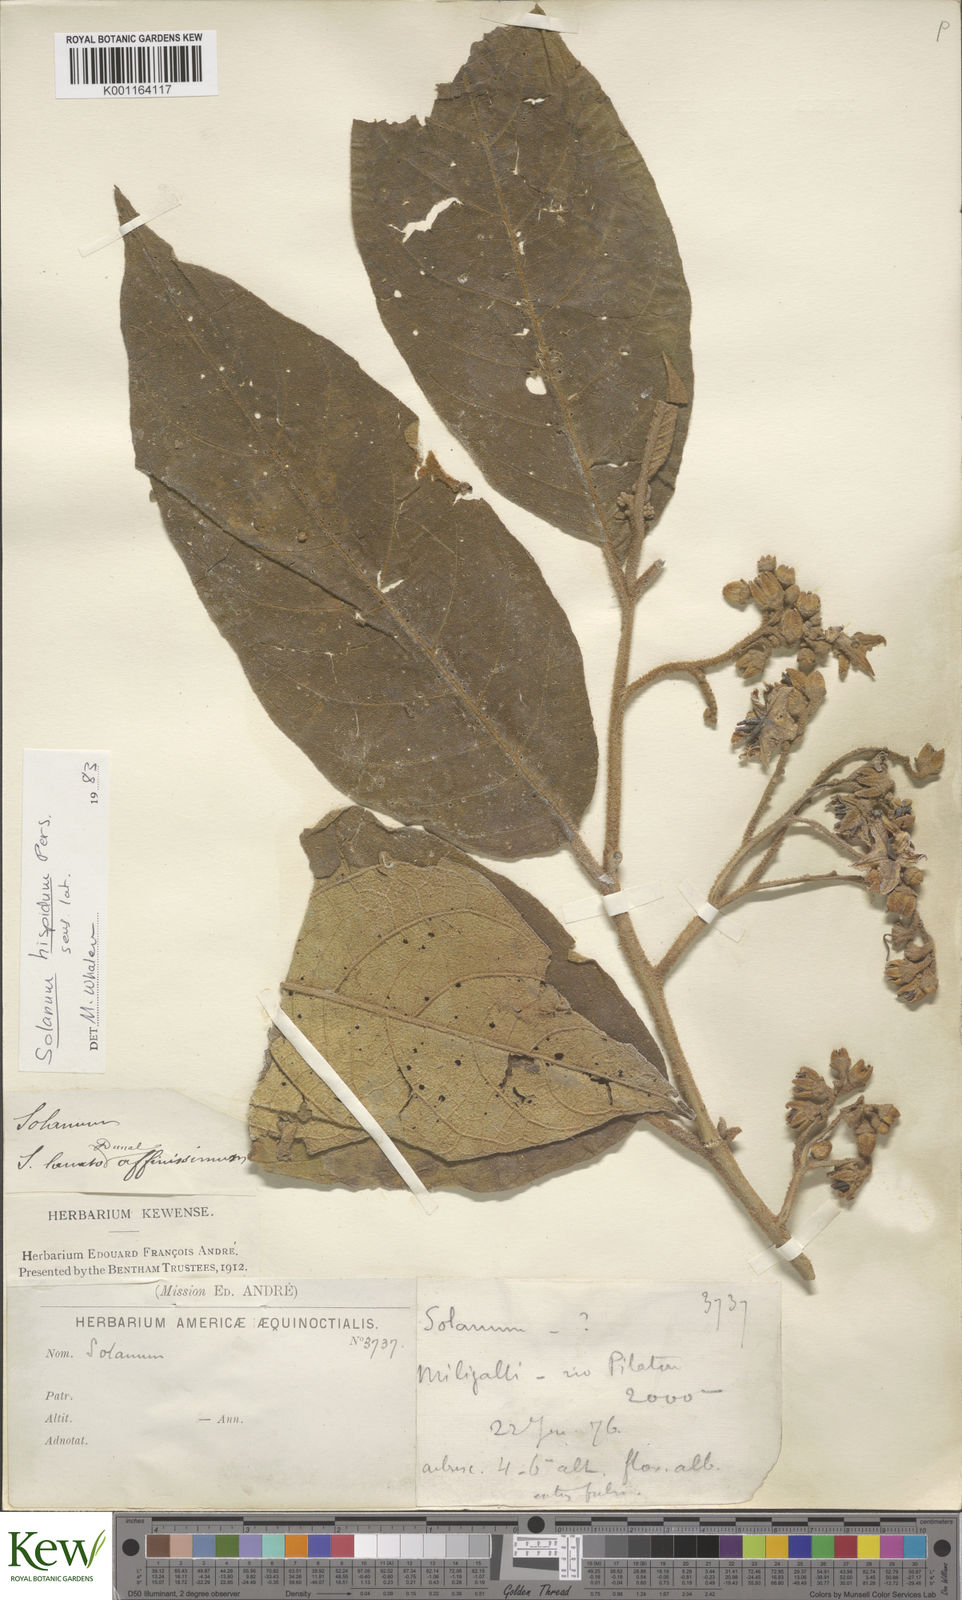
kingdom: Plantae
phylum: Tracheophyta
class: Magnoliopsida
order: Solanales
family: Solanaceae
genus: Solanum
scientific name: Solanum asperolanatum
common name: Devil's-fig
